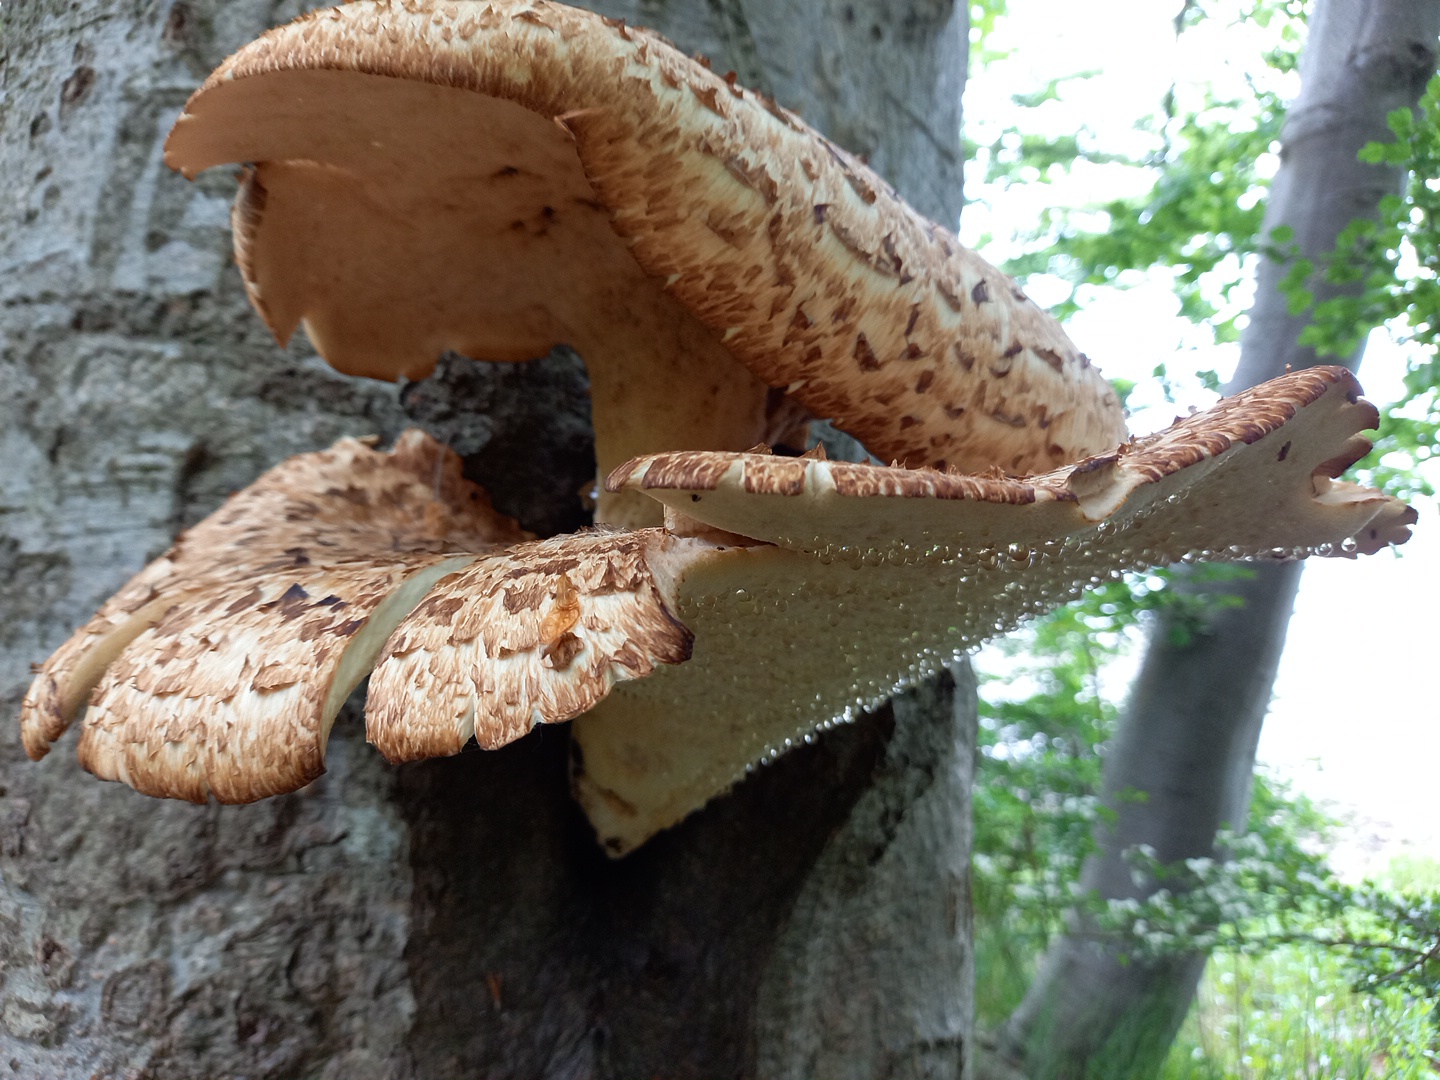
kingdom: Fungi
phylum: Basidiomycota
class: Agaricomycetes
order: Polyporales
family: Polyporaceae
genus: Cerioporus
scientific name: Cerioporus squamosus
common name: skællet stilkporesvamp
